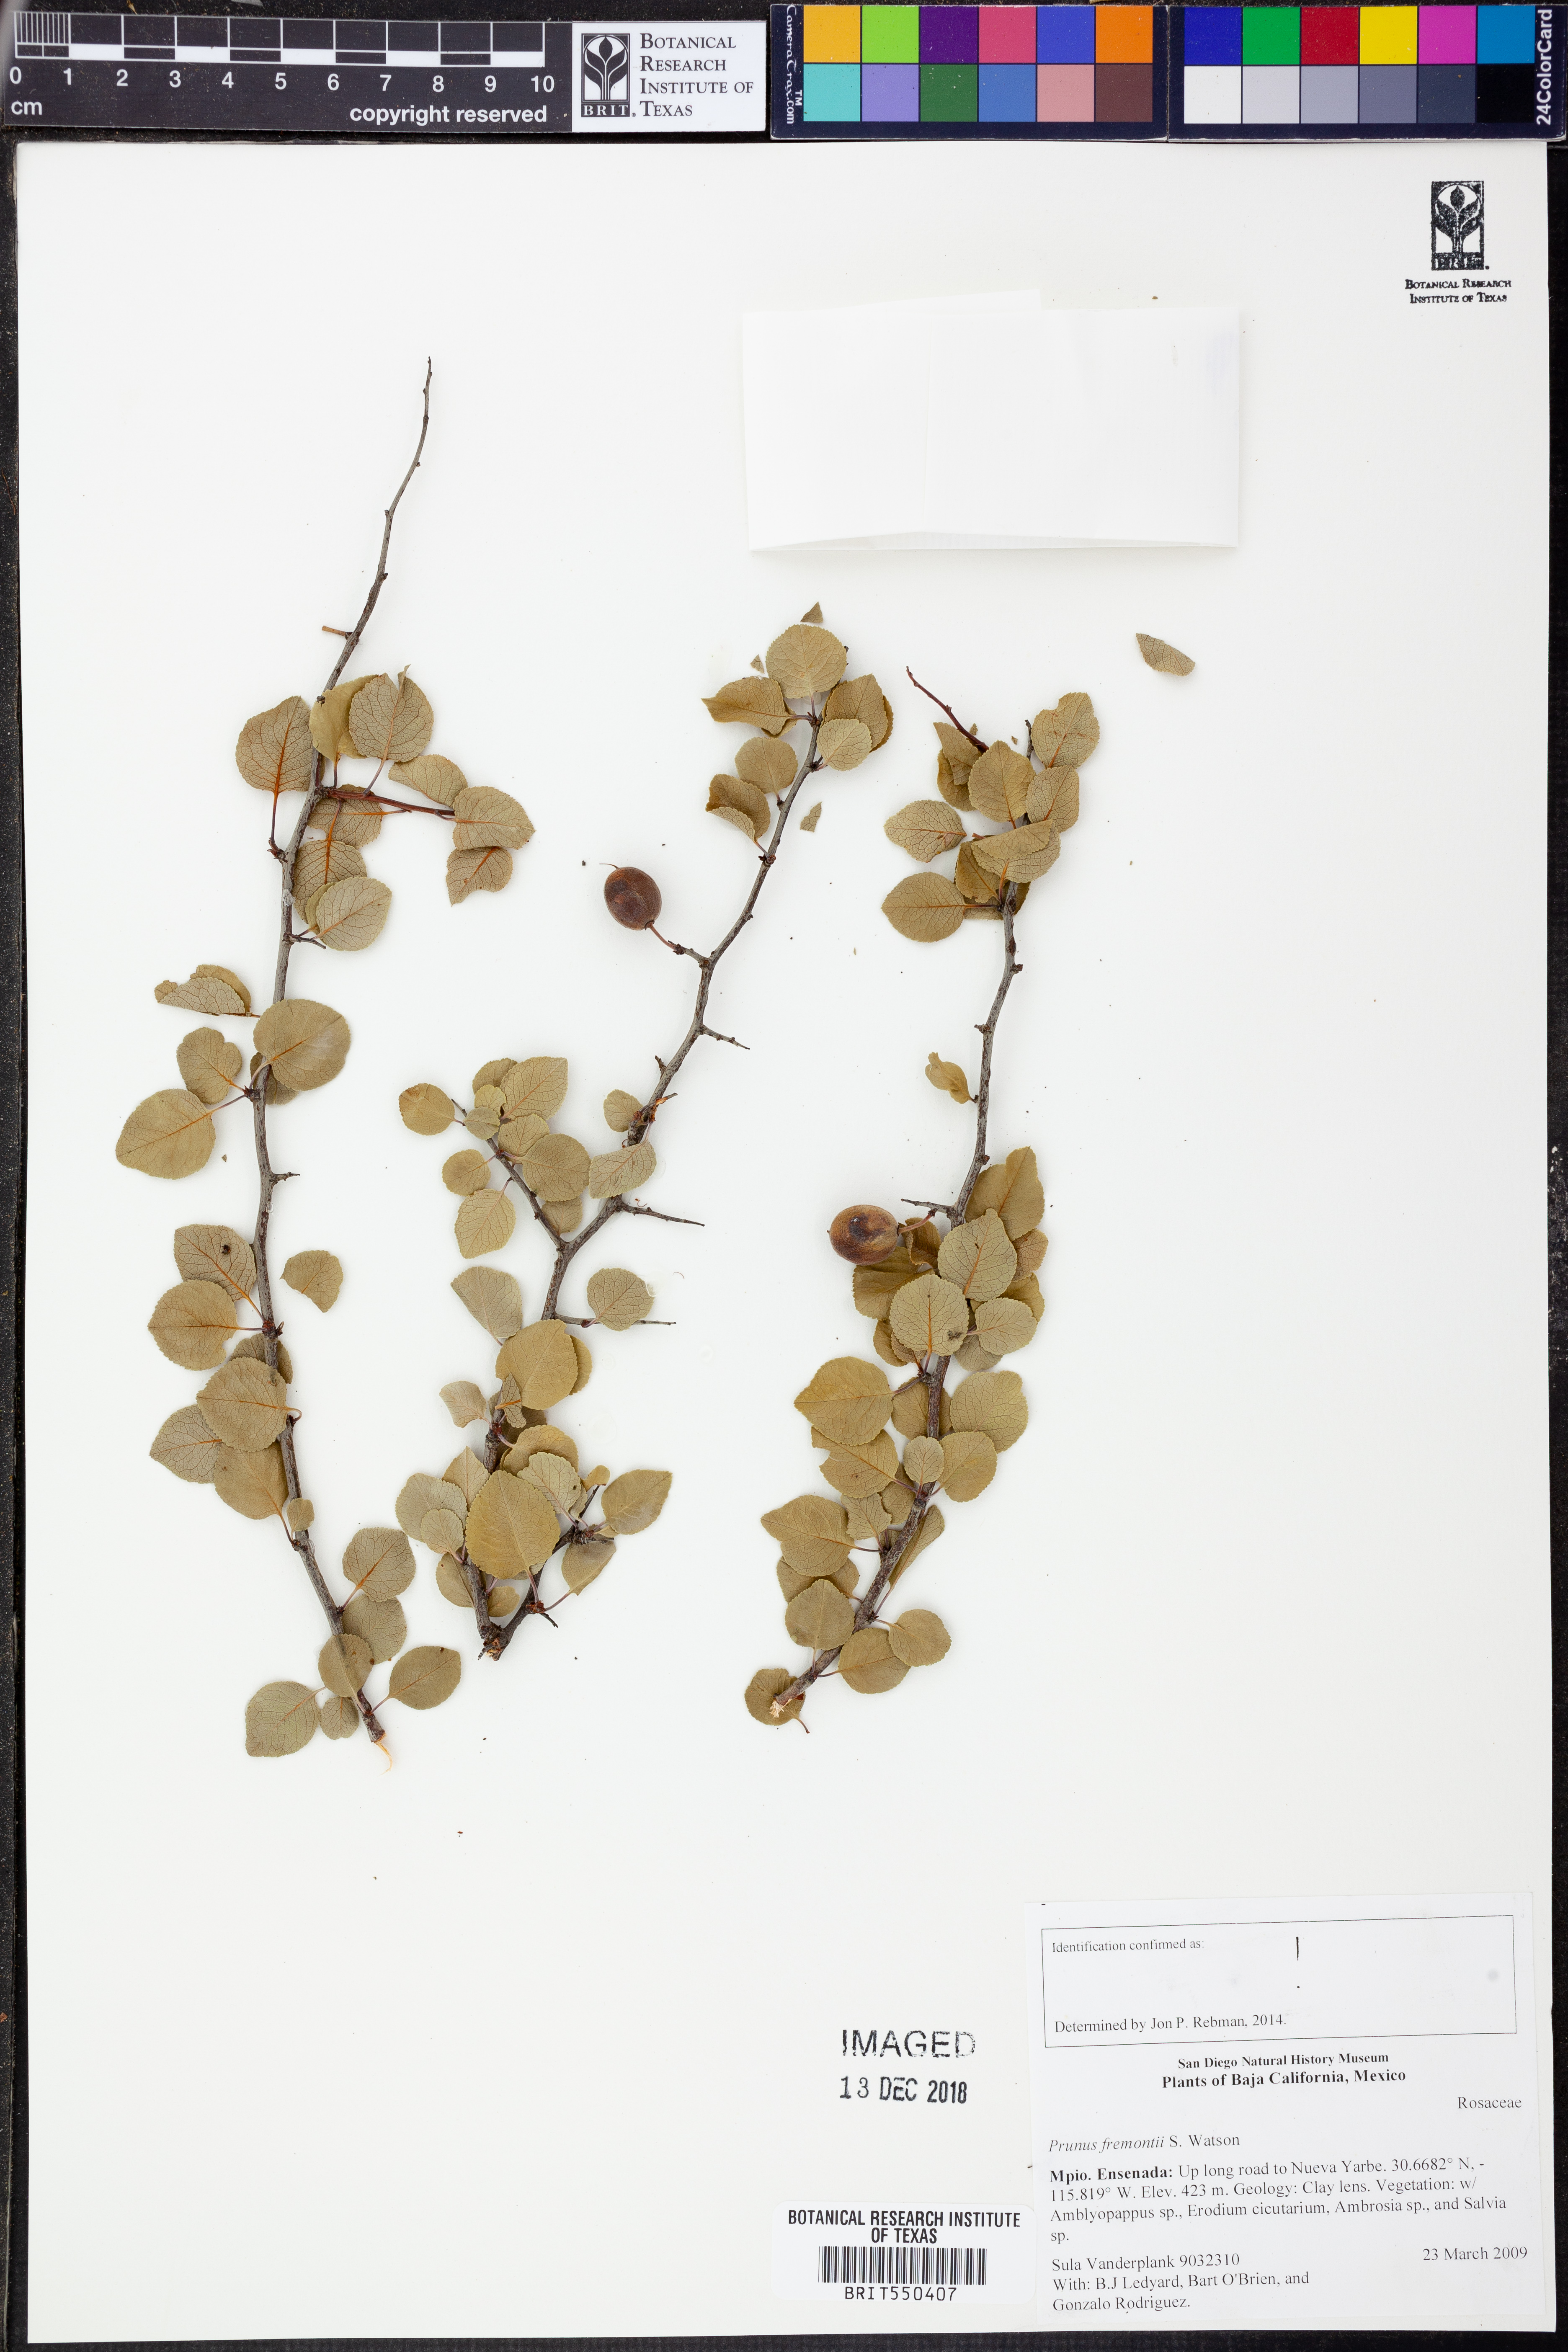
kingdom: Plantae
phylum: Tracheophyta
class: Magnoliopsida
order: Rosales
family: Rosaceae
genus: Prunus
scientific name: Prunus fremontii
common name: Desert apricot
